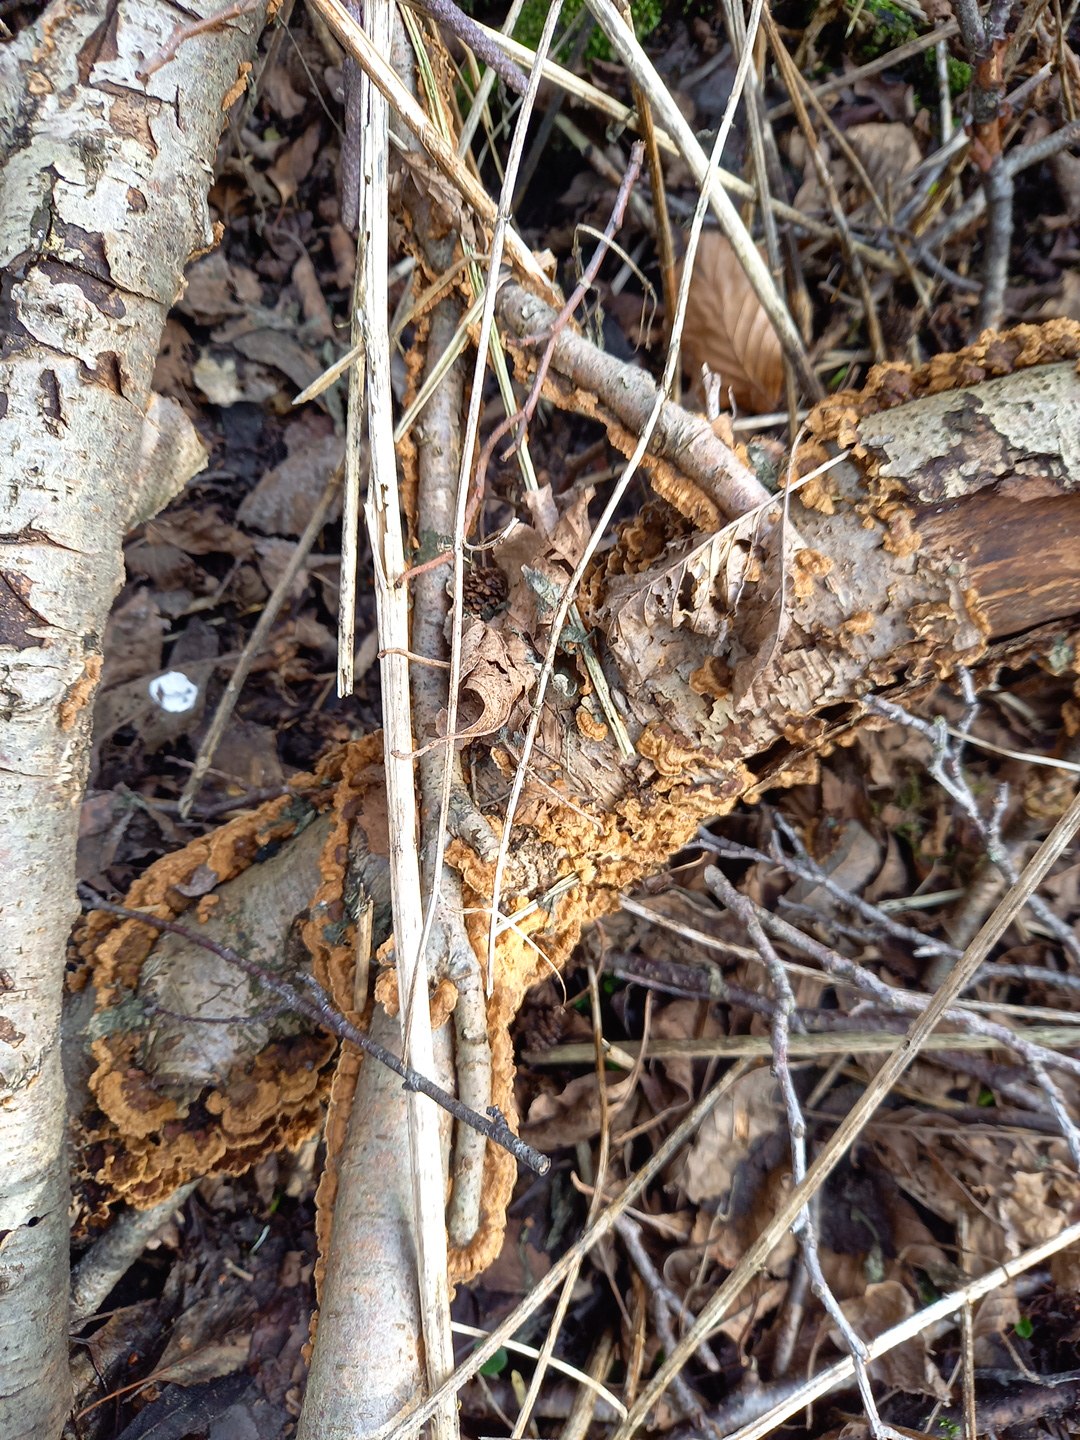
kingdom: Fungi
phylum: Basidiomycota
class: Agaricomycetes
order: Hymenochaetales
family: Hymenochaetaceae
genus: Hydnoporia
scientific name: Hydnoporia tabacina
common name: tobaksbrun ruslædersvamp
